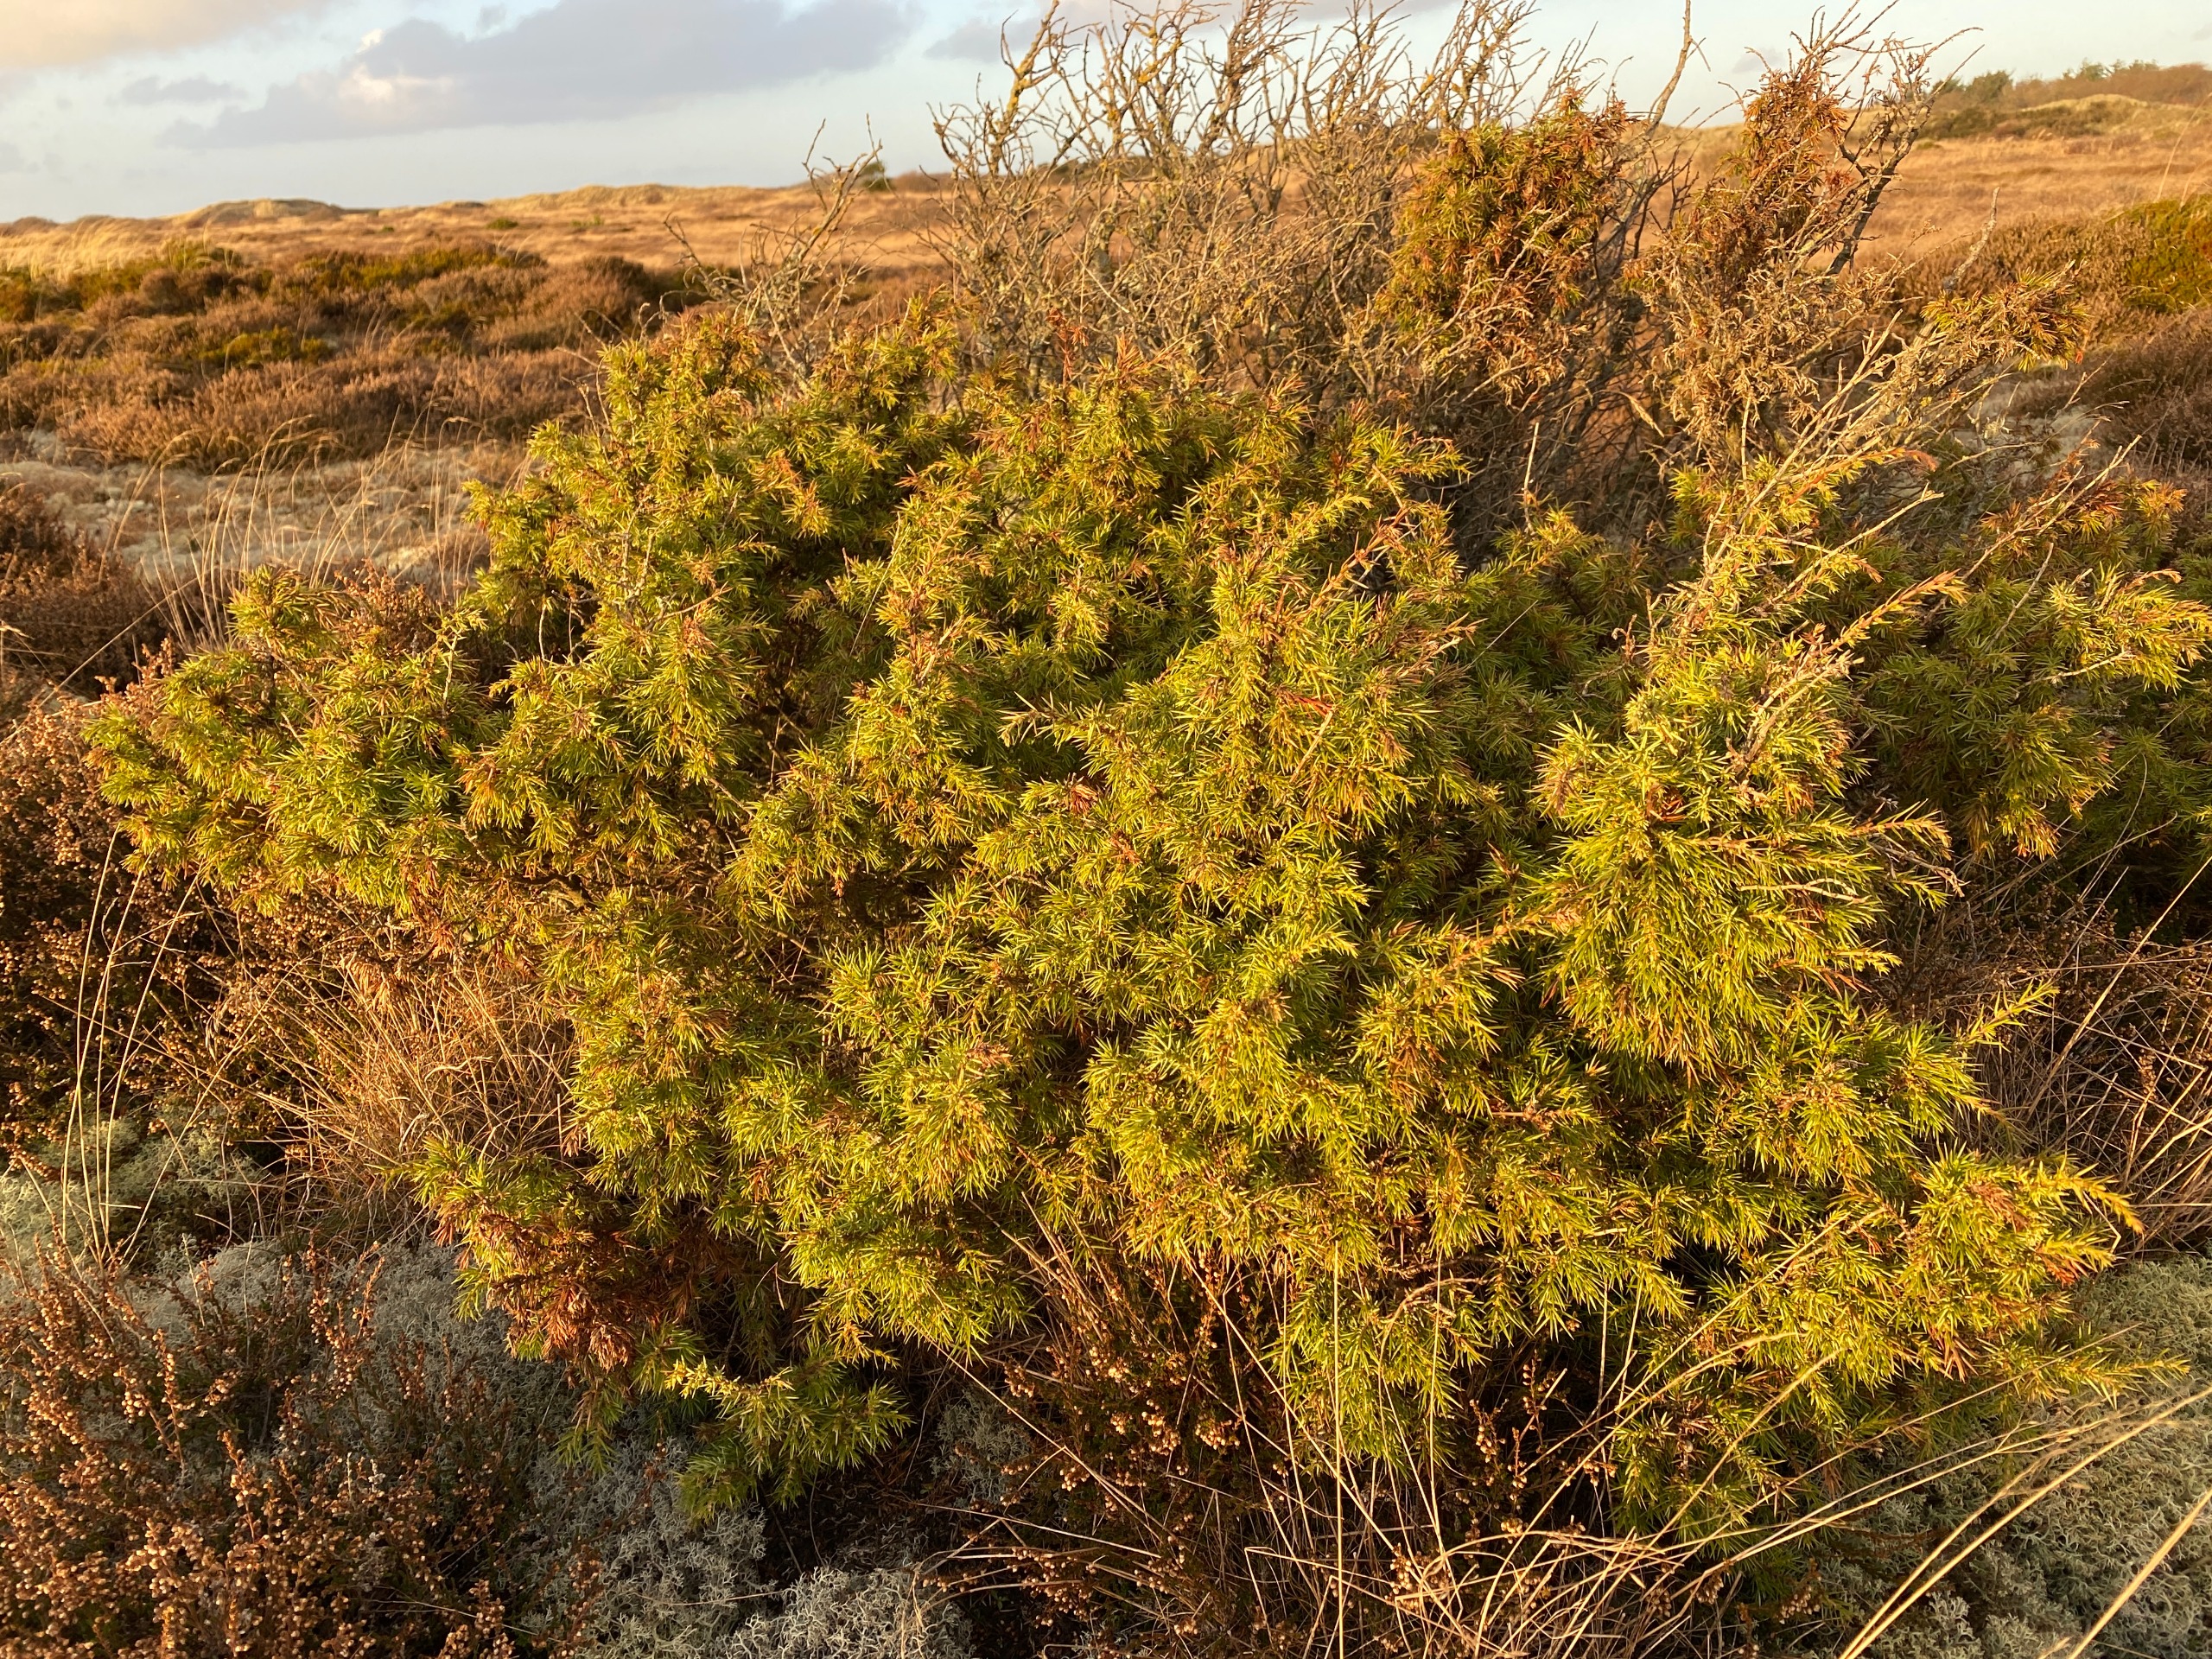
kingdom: Plantae
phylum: Tracheophyta
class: Pinopsida
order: Pinales
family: Cupressaceae
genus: Juniperus
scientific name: Juniperus communis
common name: Almindelig ene
